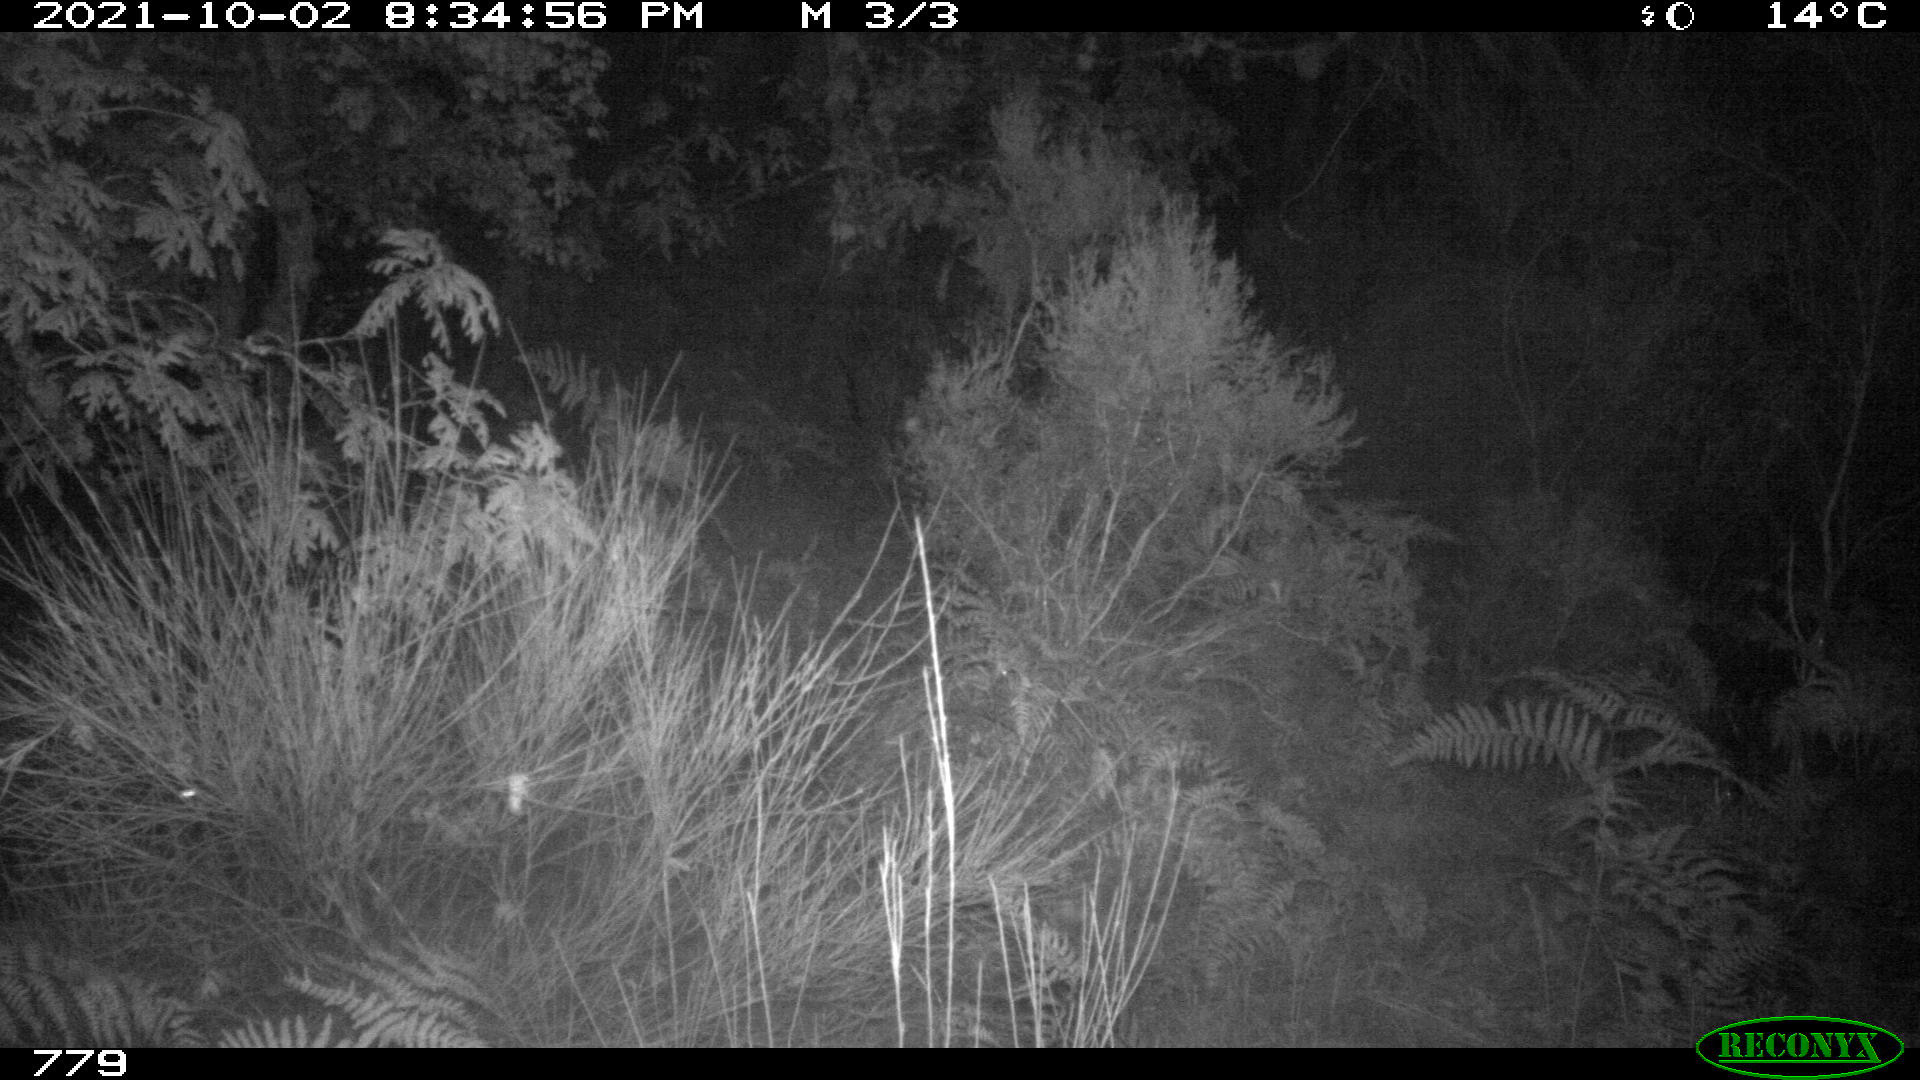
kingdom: Animalia
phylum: Chordata
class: Mammalia
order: Artiodactyla
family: Suidae
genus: Sus
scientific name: Sus scrofa
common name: Wild boar
